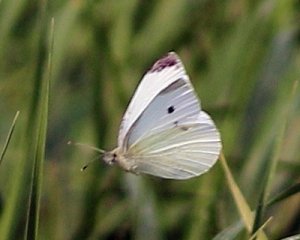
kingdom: Animalia
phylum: Arthropoda
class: Insecta
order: Lepidoptera
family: Pieridae
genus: Pieris
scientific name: Pieris rapae
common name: Cabbage White
